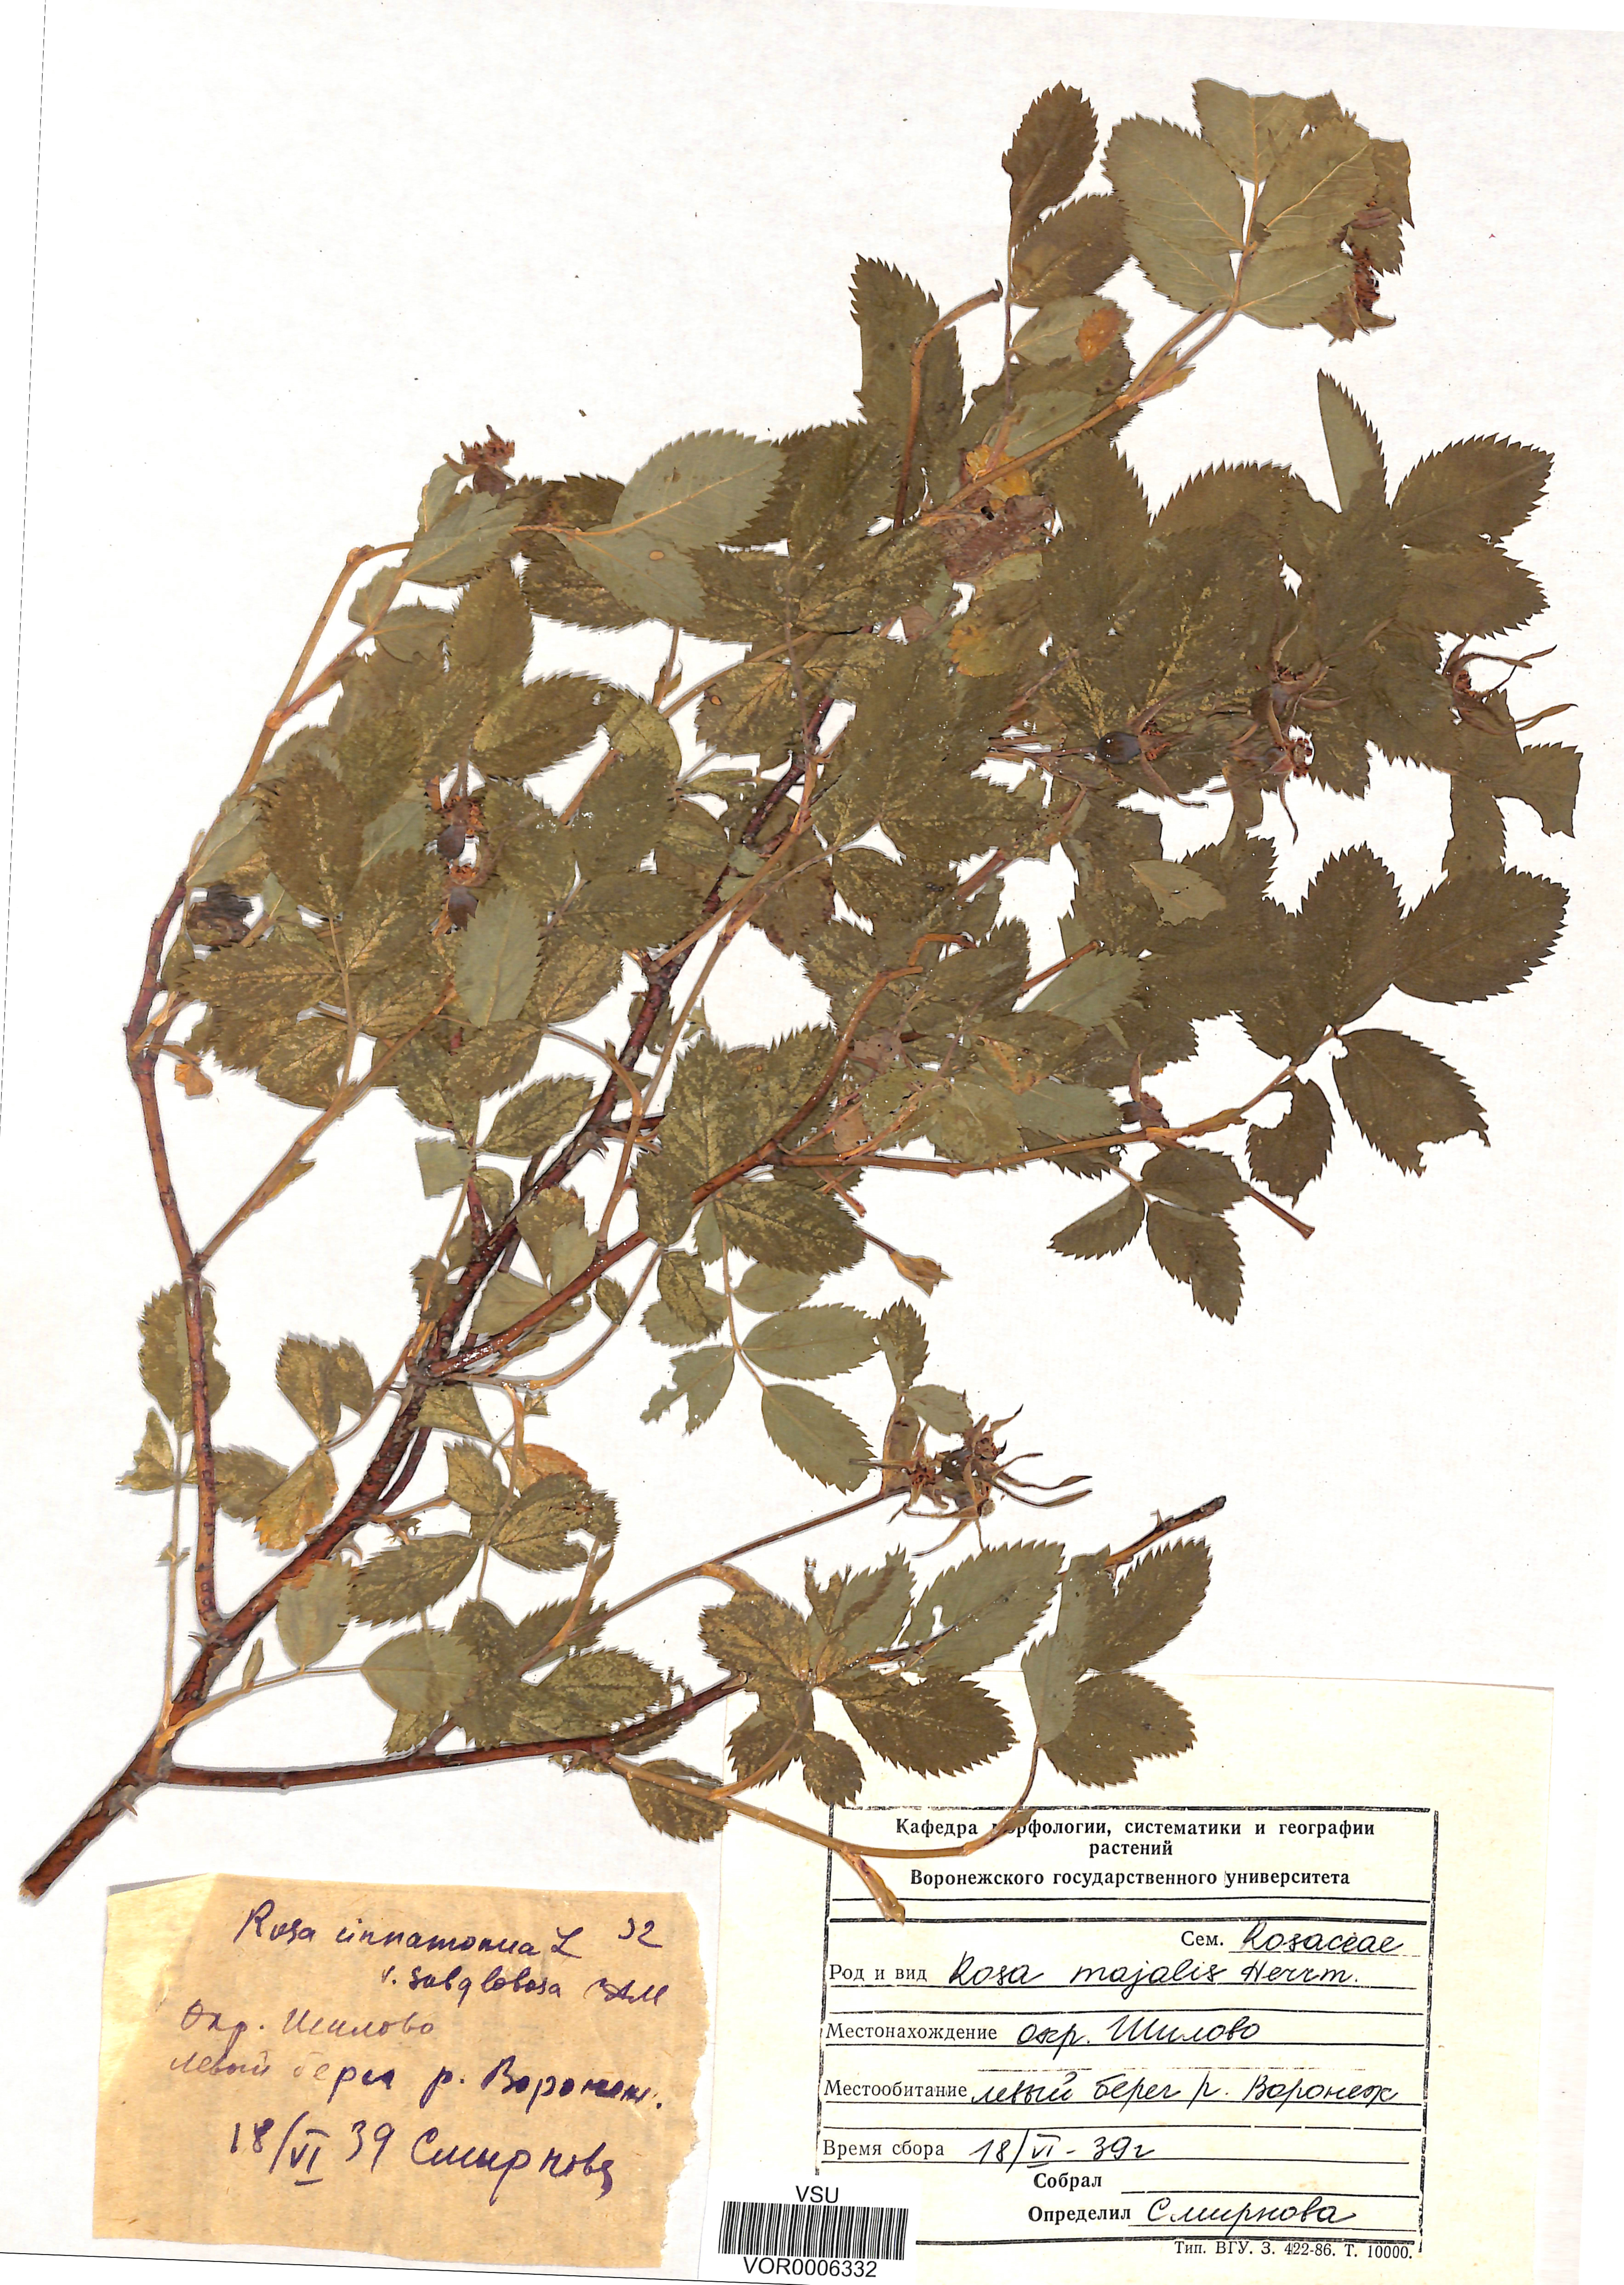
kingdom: Plantae
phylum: Tracheophyta
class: Magnoliopsida
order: Rosales
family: Rosaceae
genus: Rosa
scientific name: Rosa majalis
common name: Cinnamon rose
